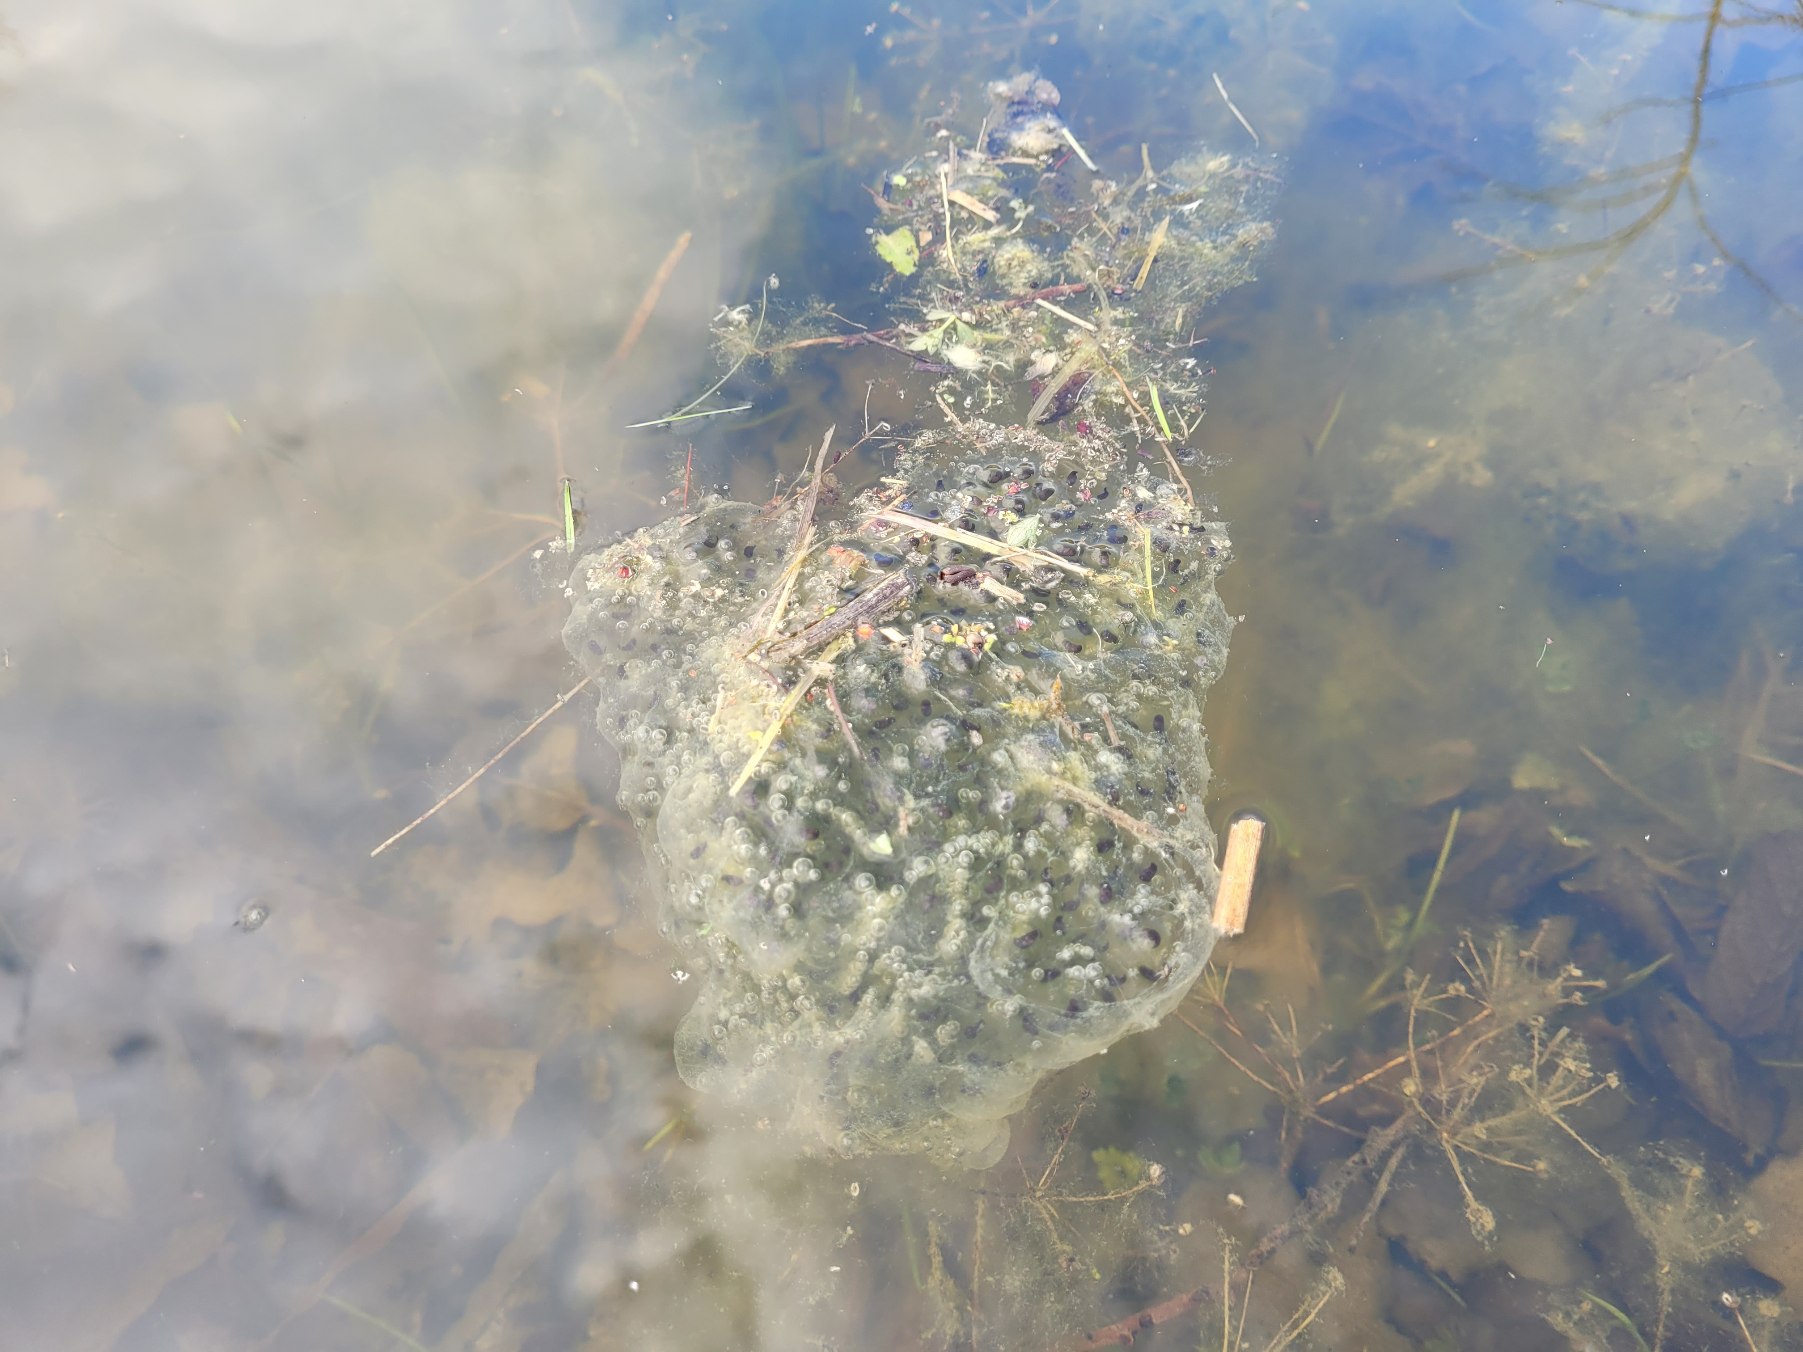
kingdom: Animalia
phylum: Chordata
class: Amphibia
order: Anura
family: Ranidae
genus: Rana
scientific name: Rana dalmatina
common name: Springfrø
